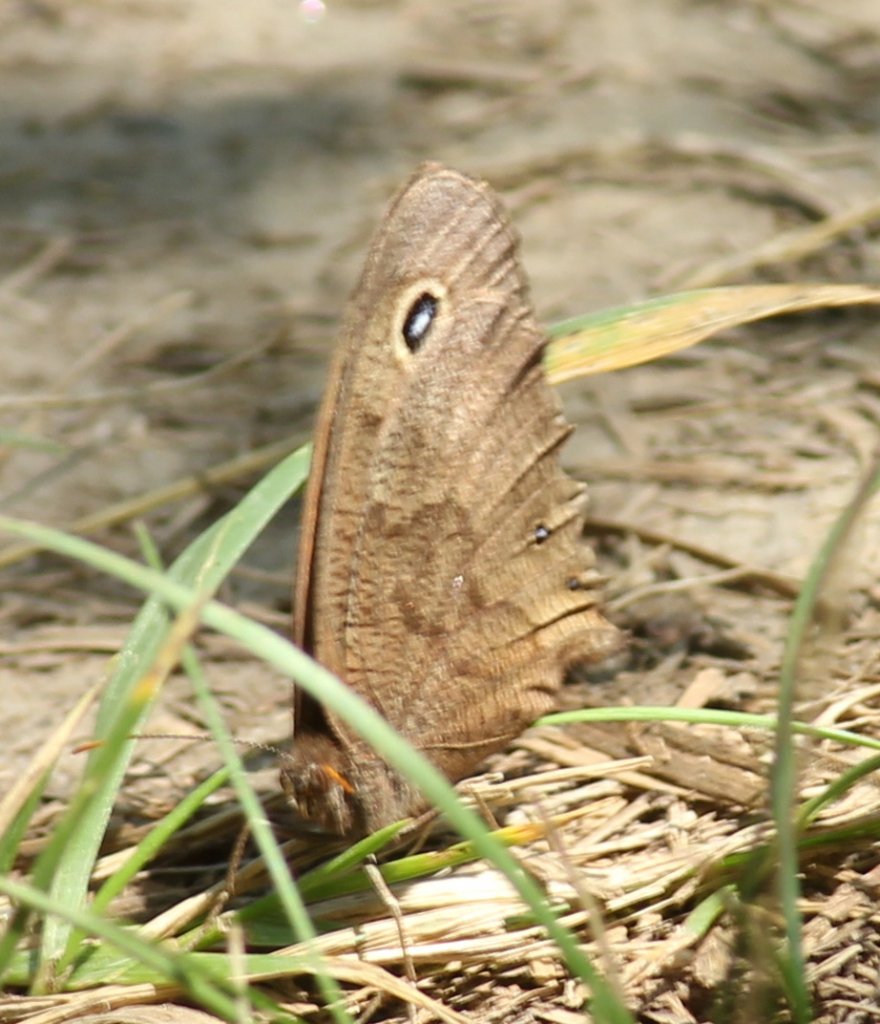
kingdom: Animalia
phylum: Arthropoda
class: Insecta
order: Lepidoptera
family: Nymphalidae
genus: Cercyonis
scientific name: Cercyonis pegala
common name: Common Wood-Nymph
